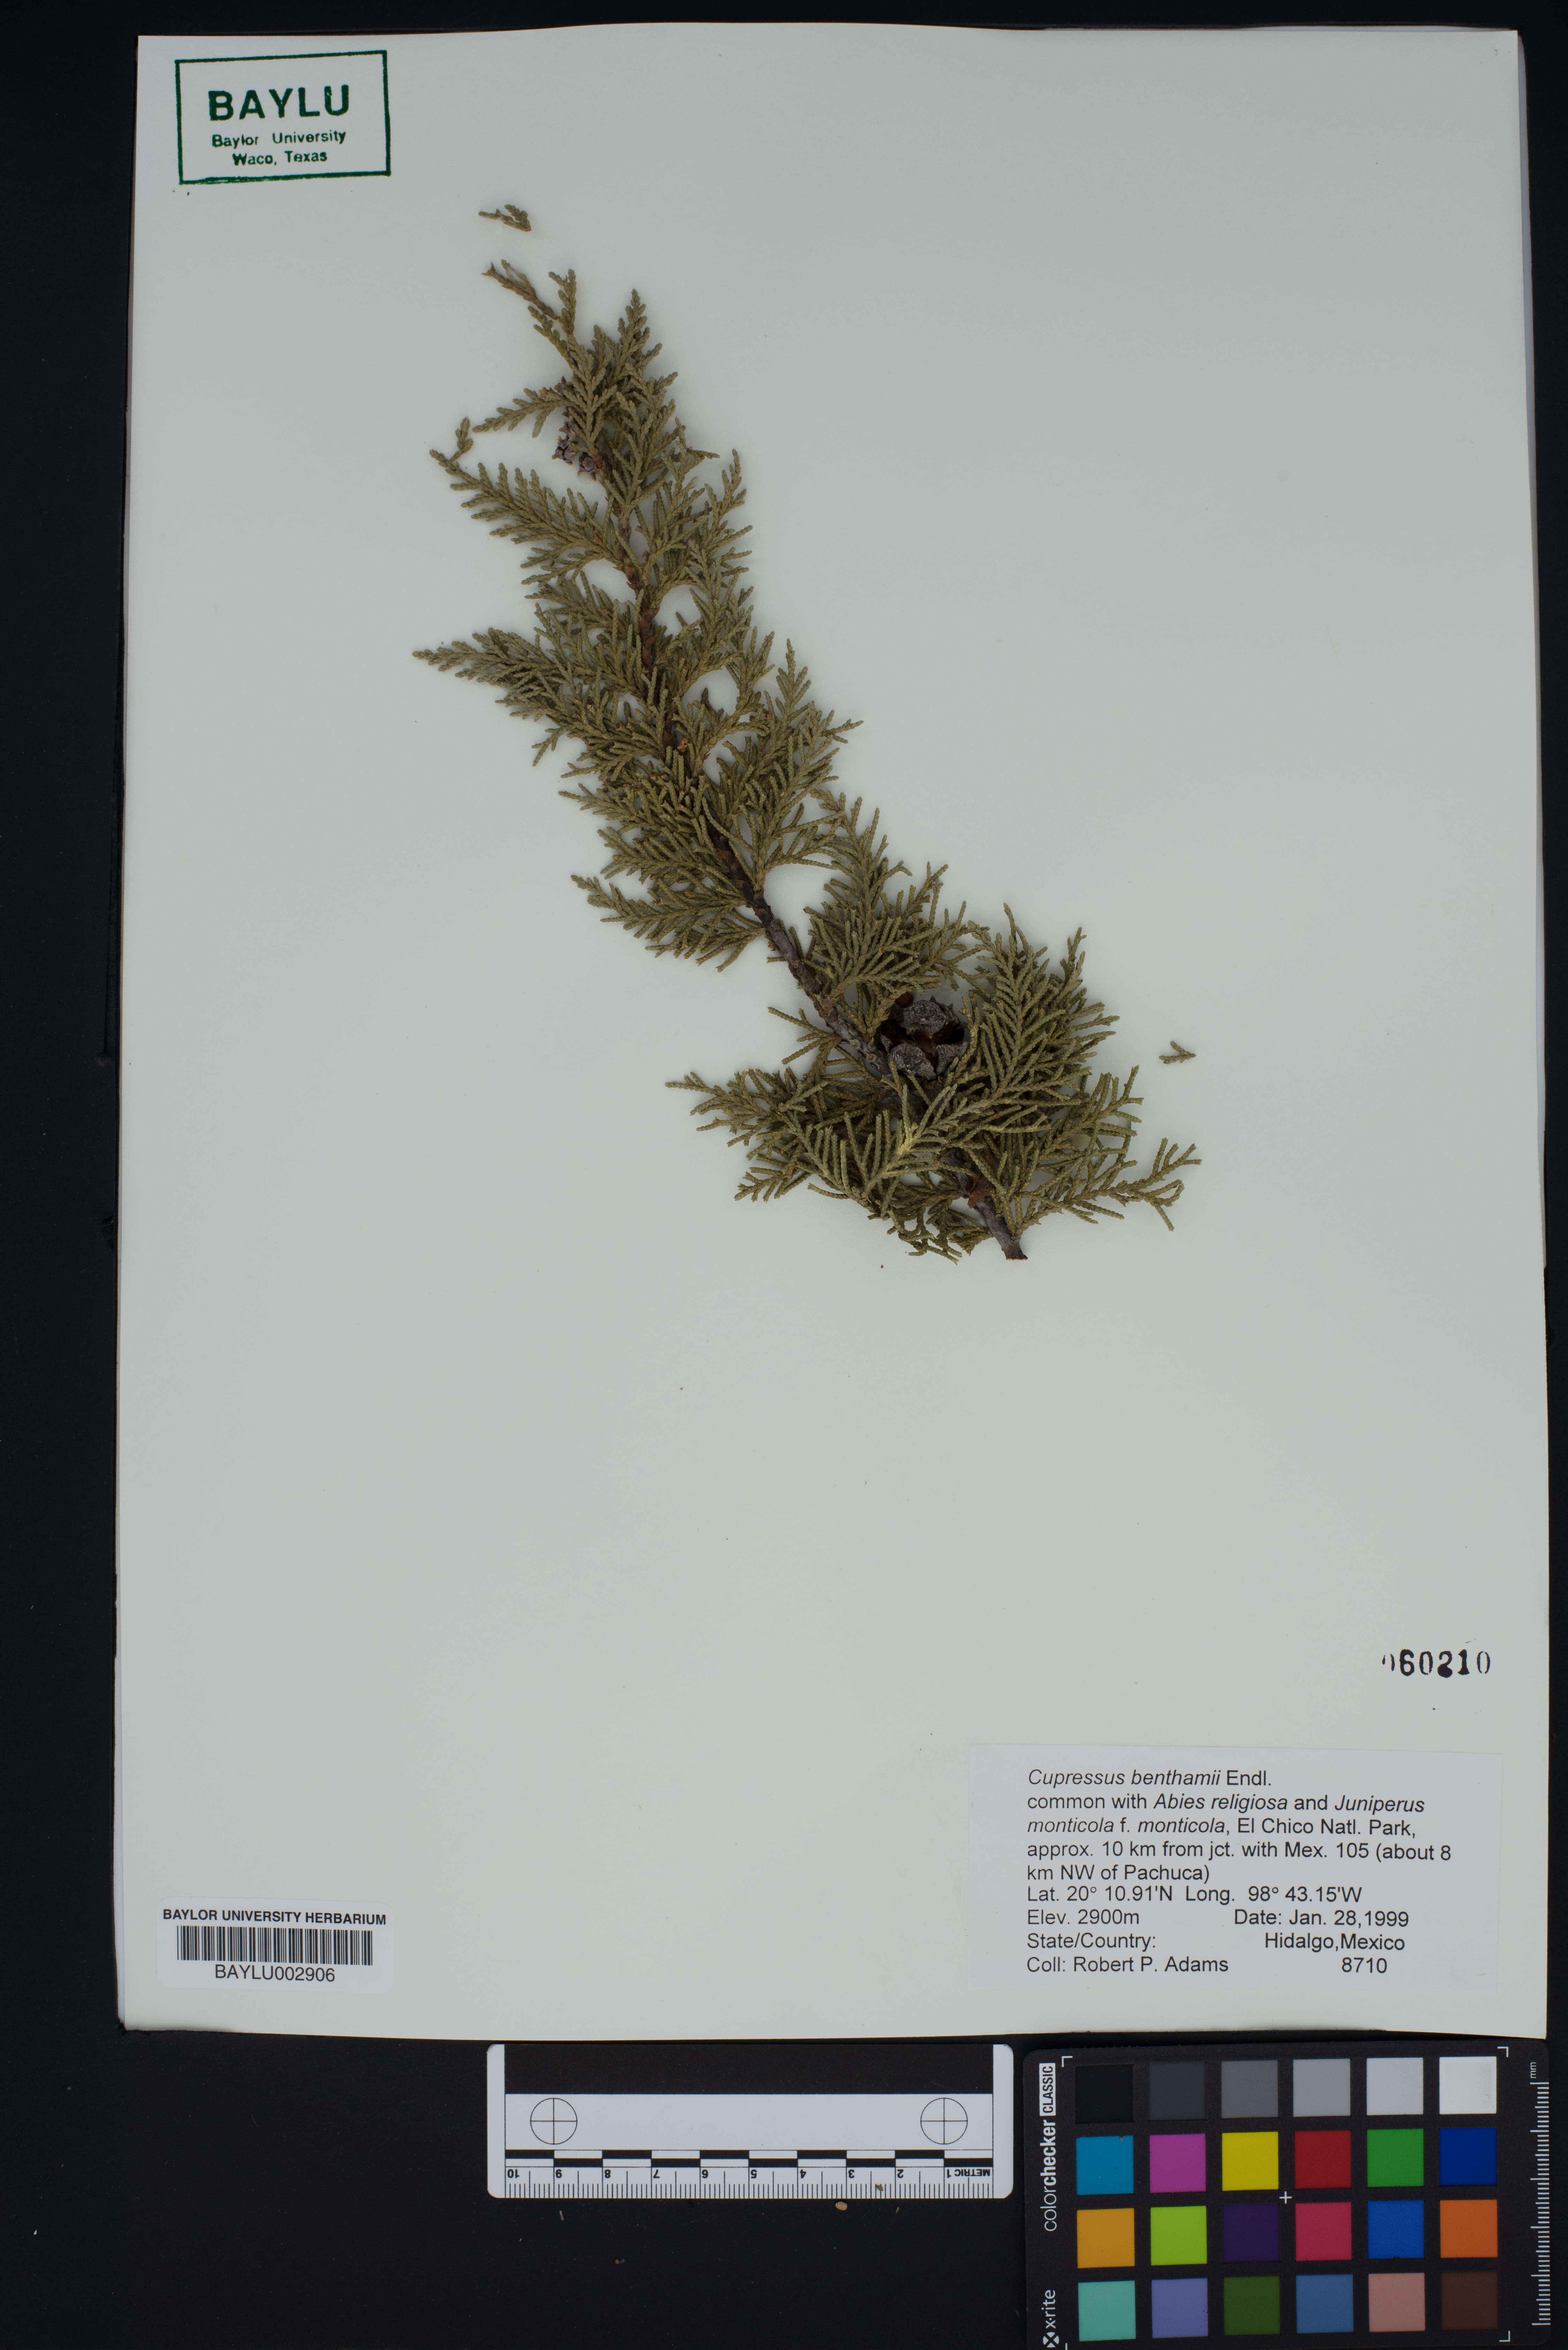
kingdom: Plantae
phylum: Tracheophyta
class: Pinopsida
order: Pinales
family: Cupressaceae
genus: Cupressus
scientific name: Cupressus lusitanica
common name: Mexican cypress
